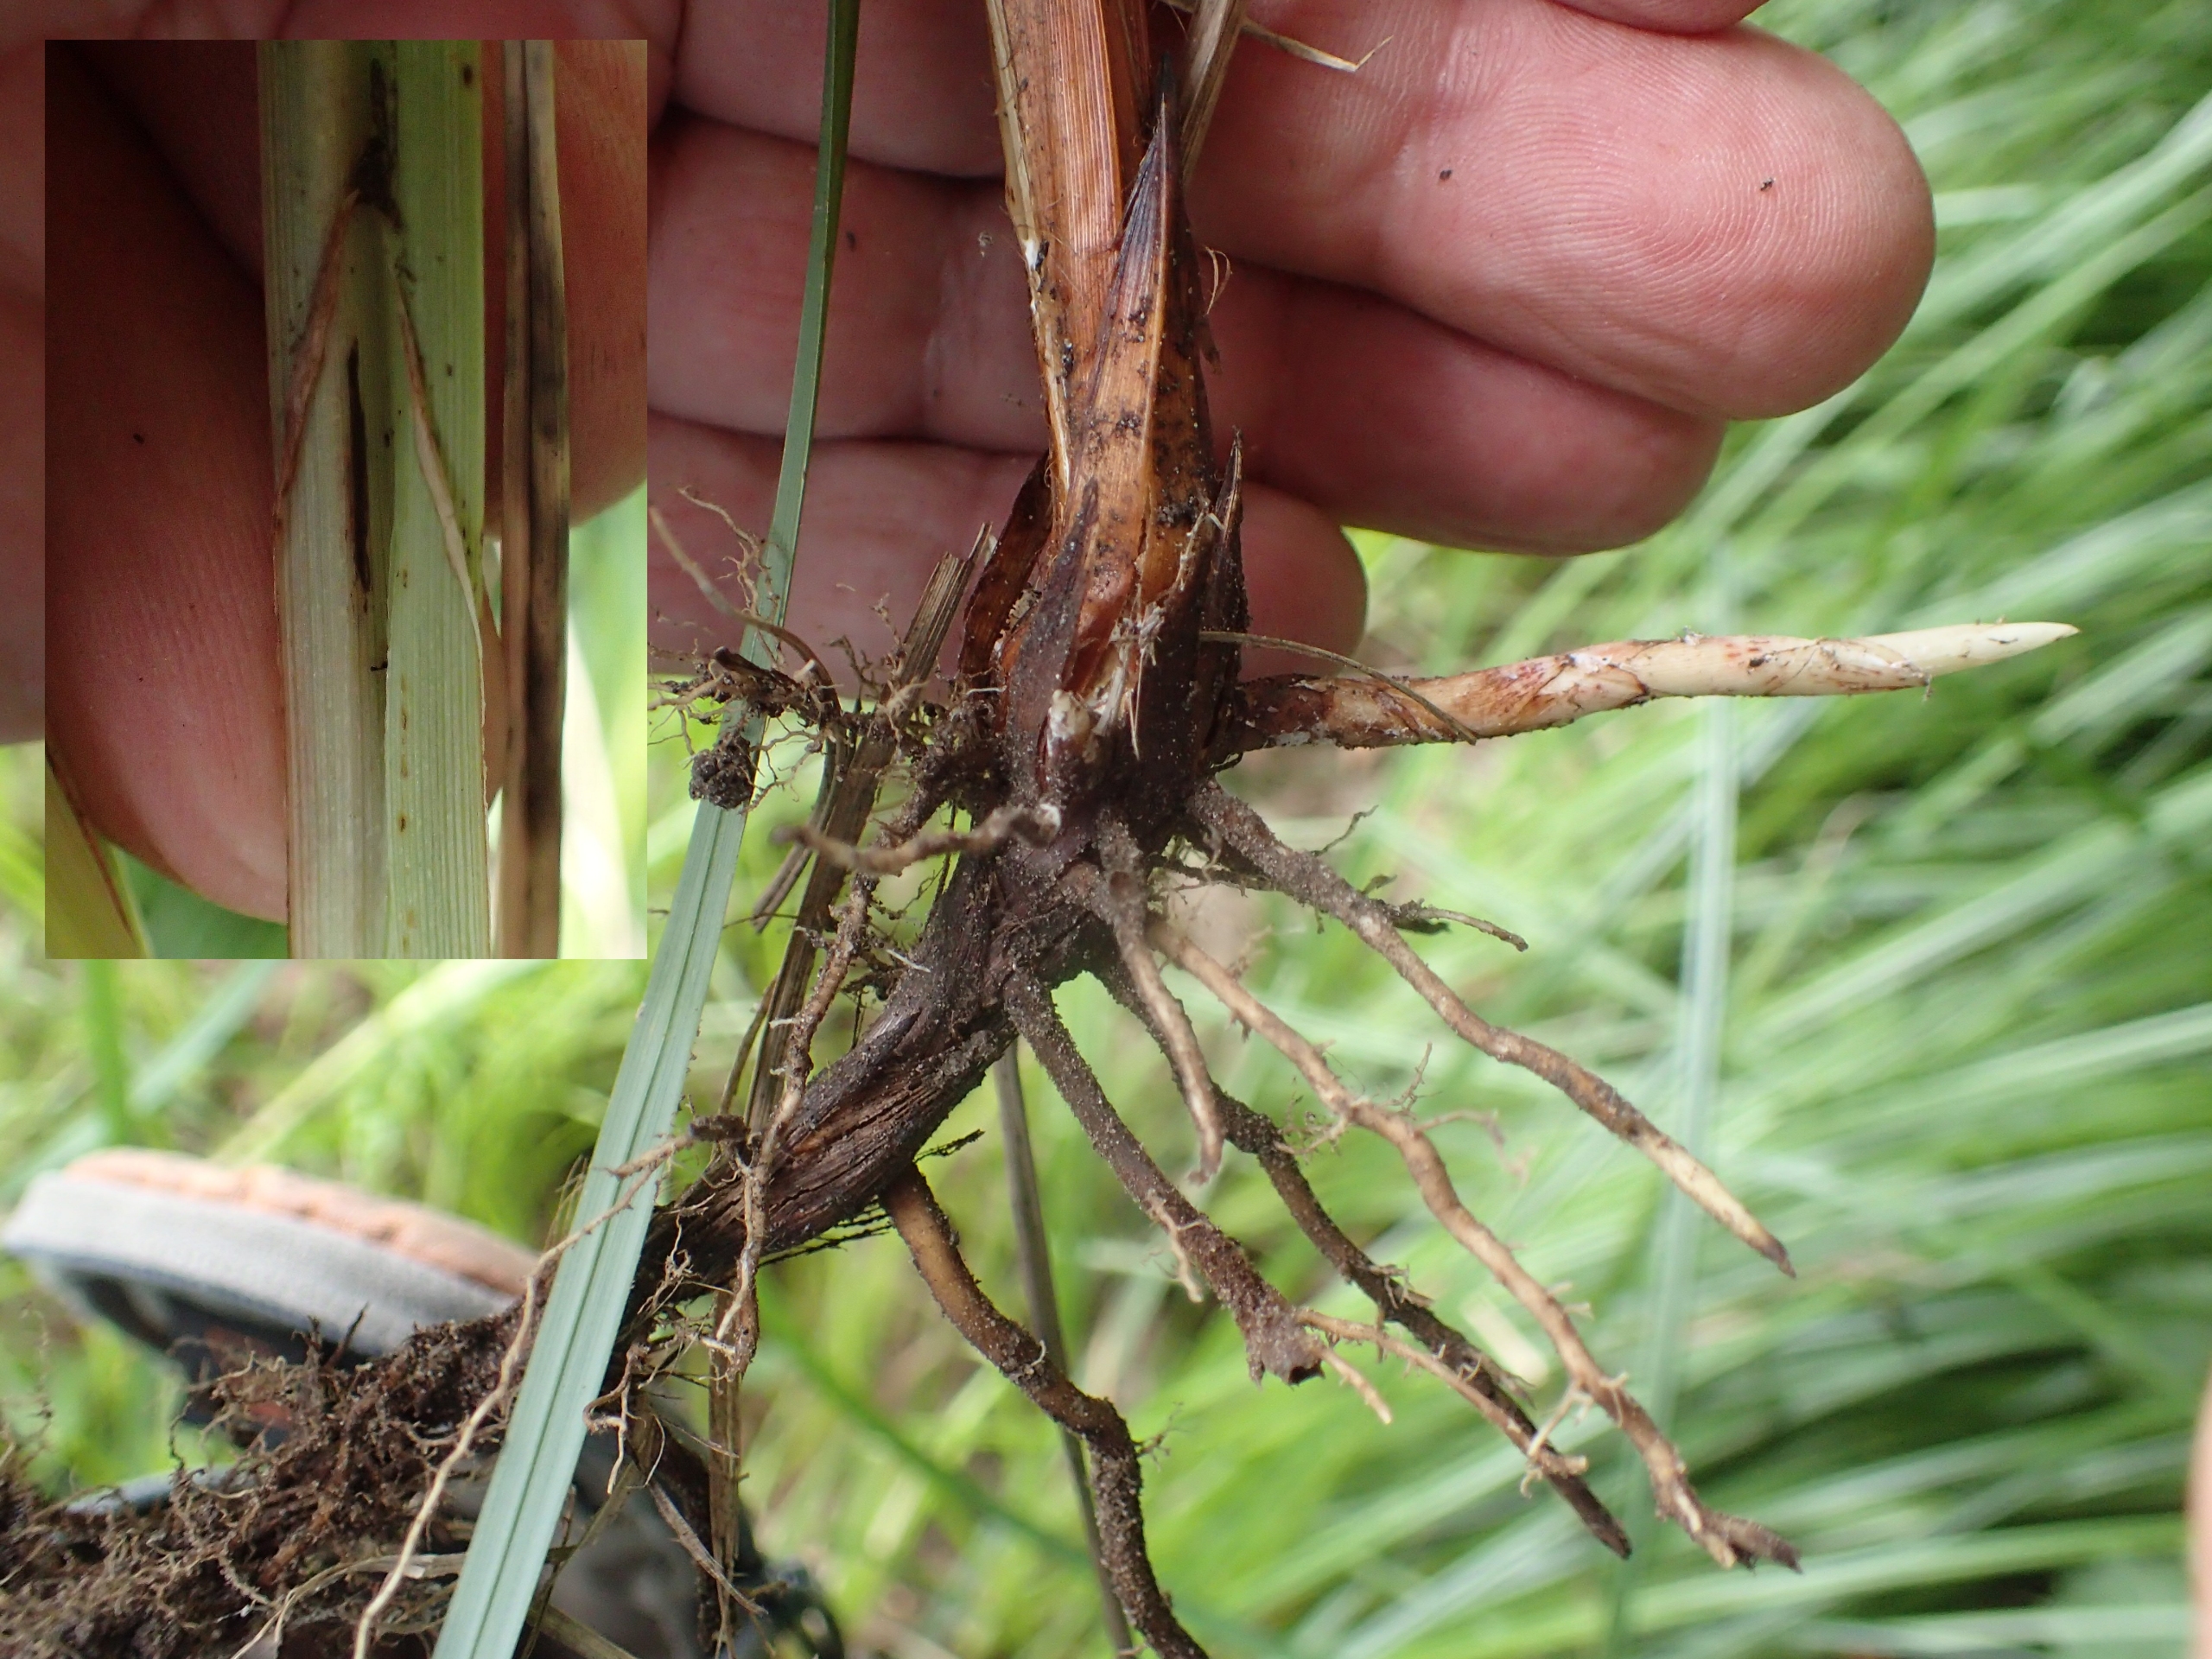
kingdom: Plantae
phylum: Tracheophyta
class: Liliopsida
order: Poales
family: Cyperaceae
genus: Carex
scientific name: Carex acutiformis
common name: Kær-star
